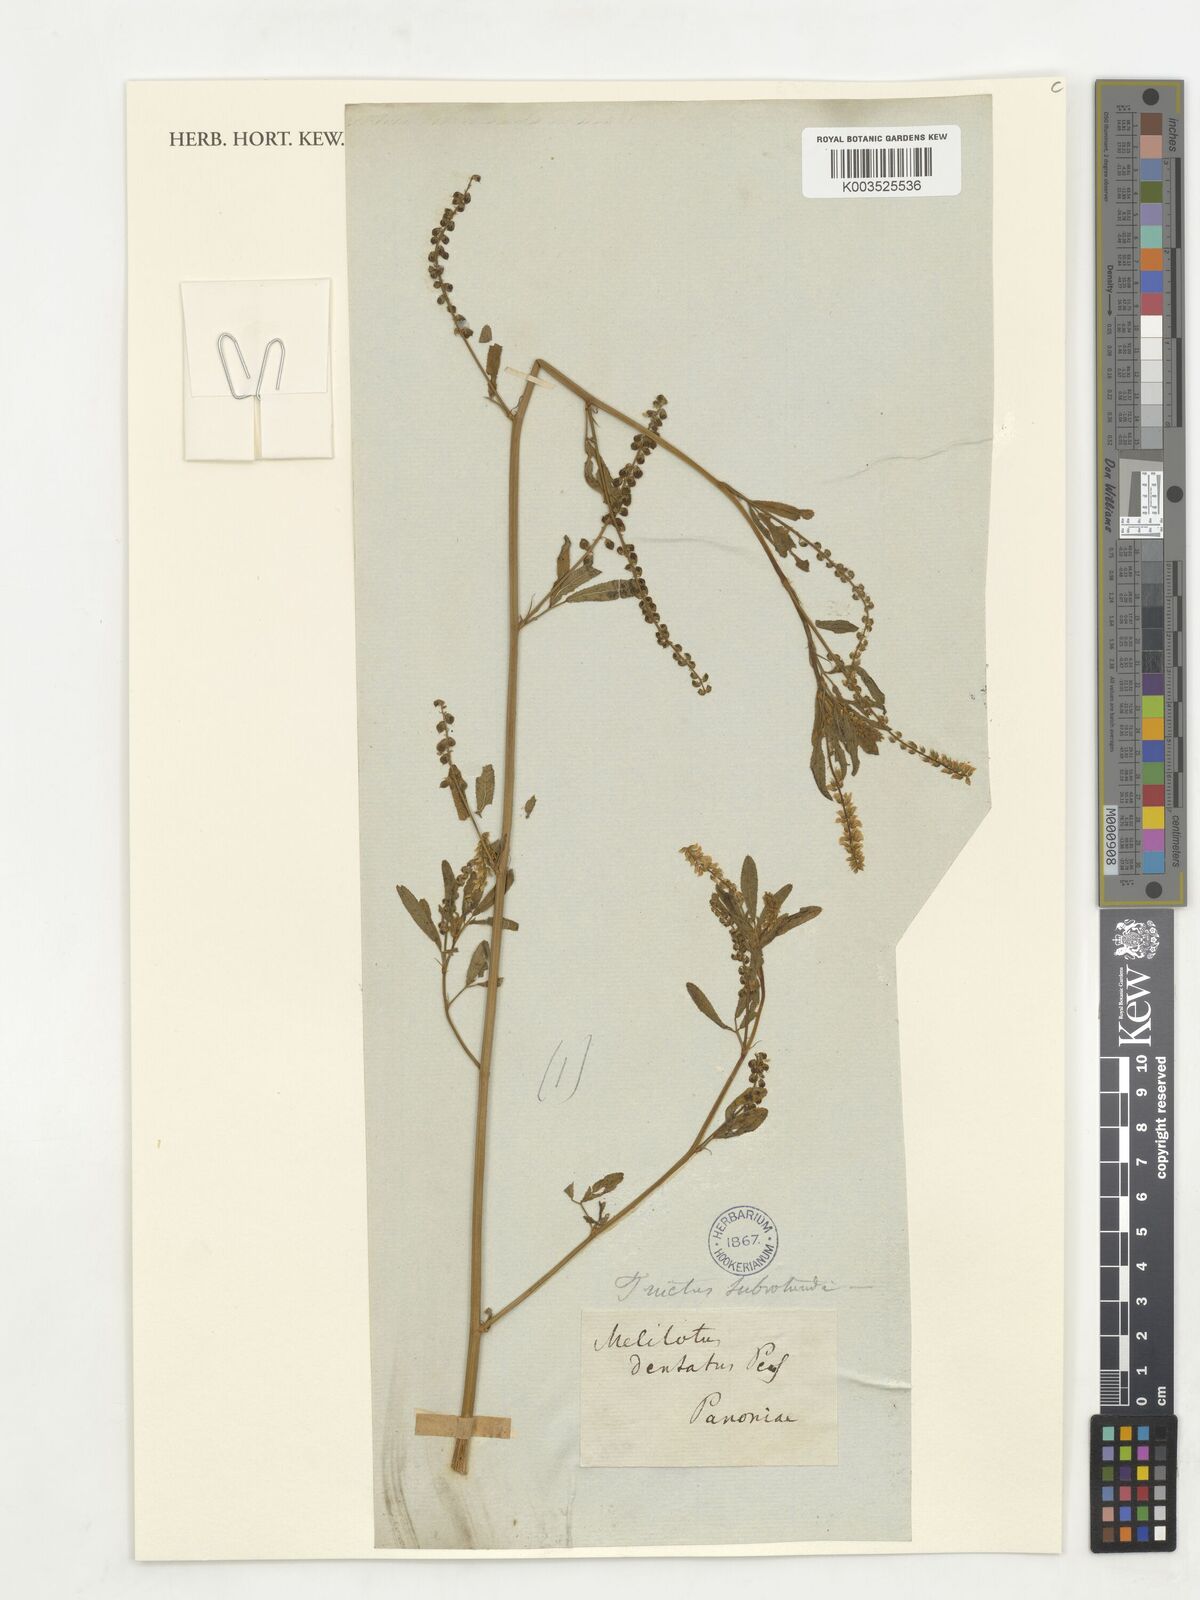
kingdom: Plantae
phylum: Tracheophyta
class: Magnoliopsida
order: Fabales
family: Fabaceae
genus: Melilotus
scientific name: Melilotus dentatus
